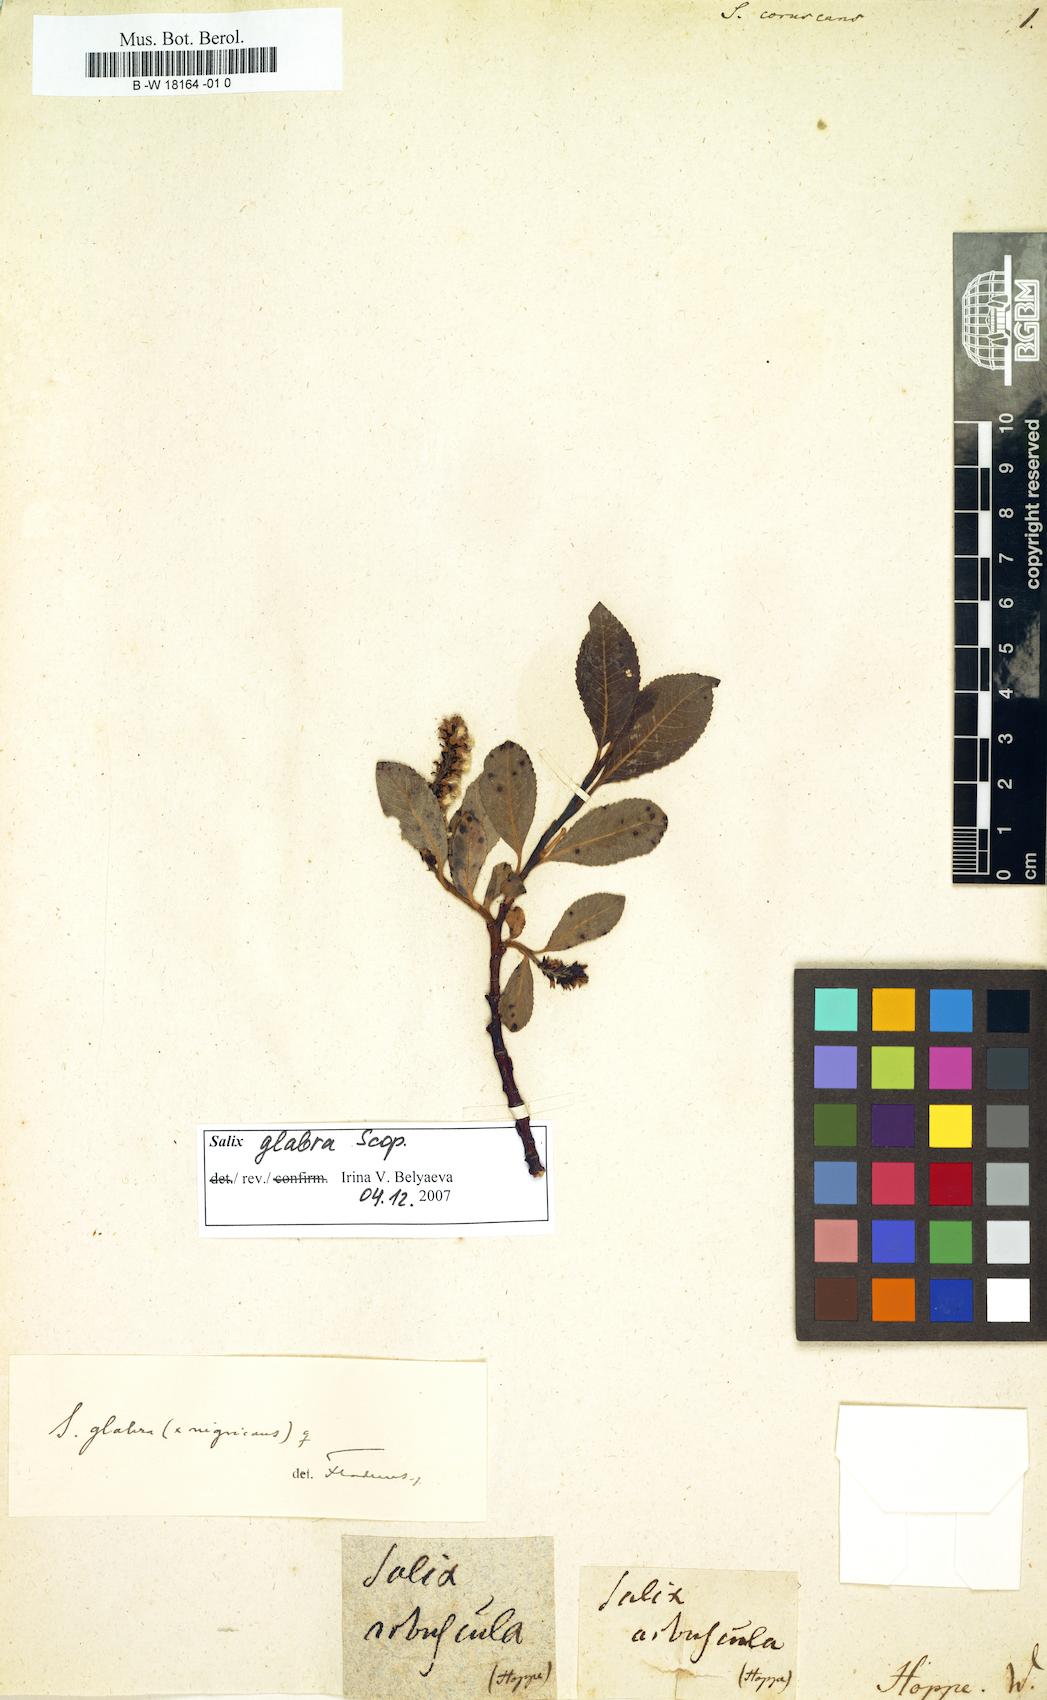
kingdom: Plantae
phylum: Tracheophyta
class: Magnoliopsida
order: Malpighiales
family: Salicaceae
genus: Salix
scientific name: Salix
